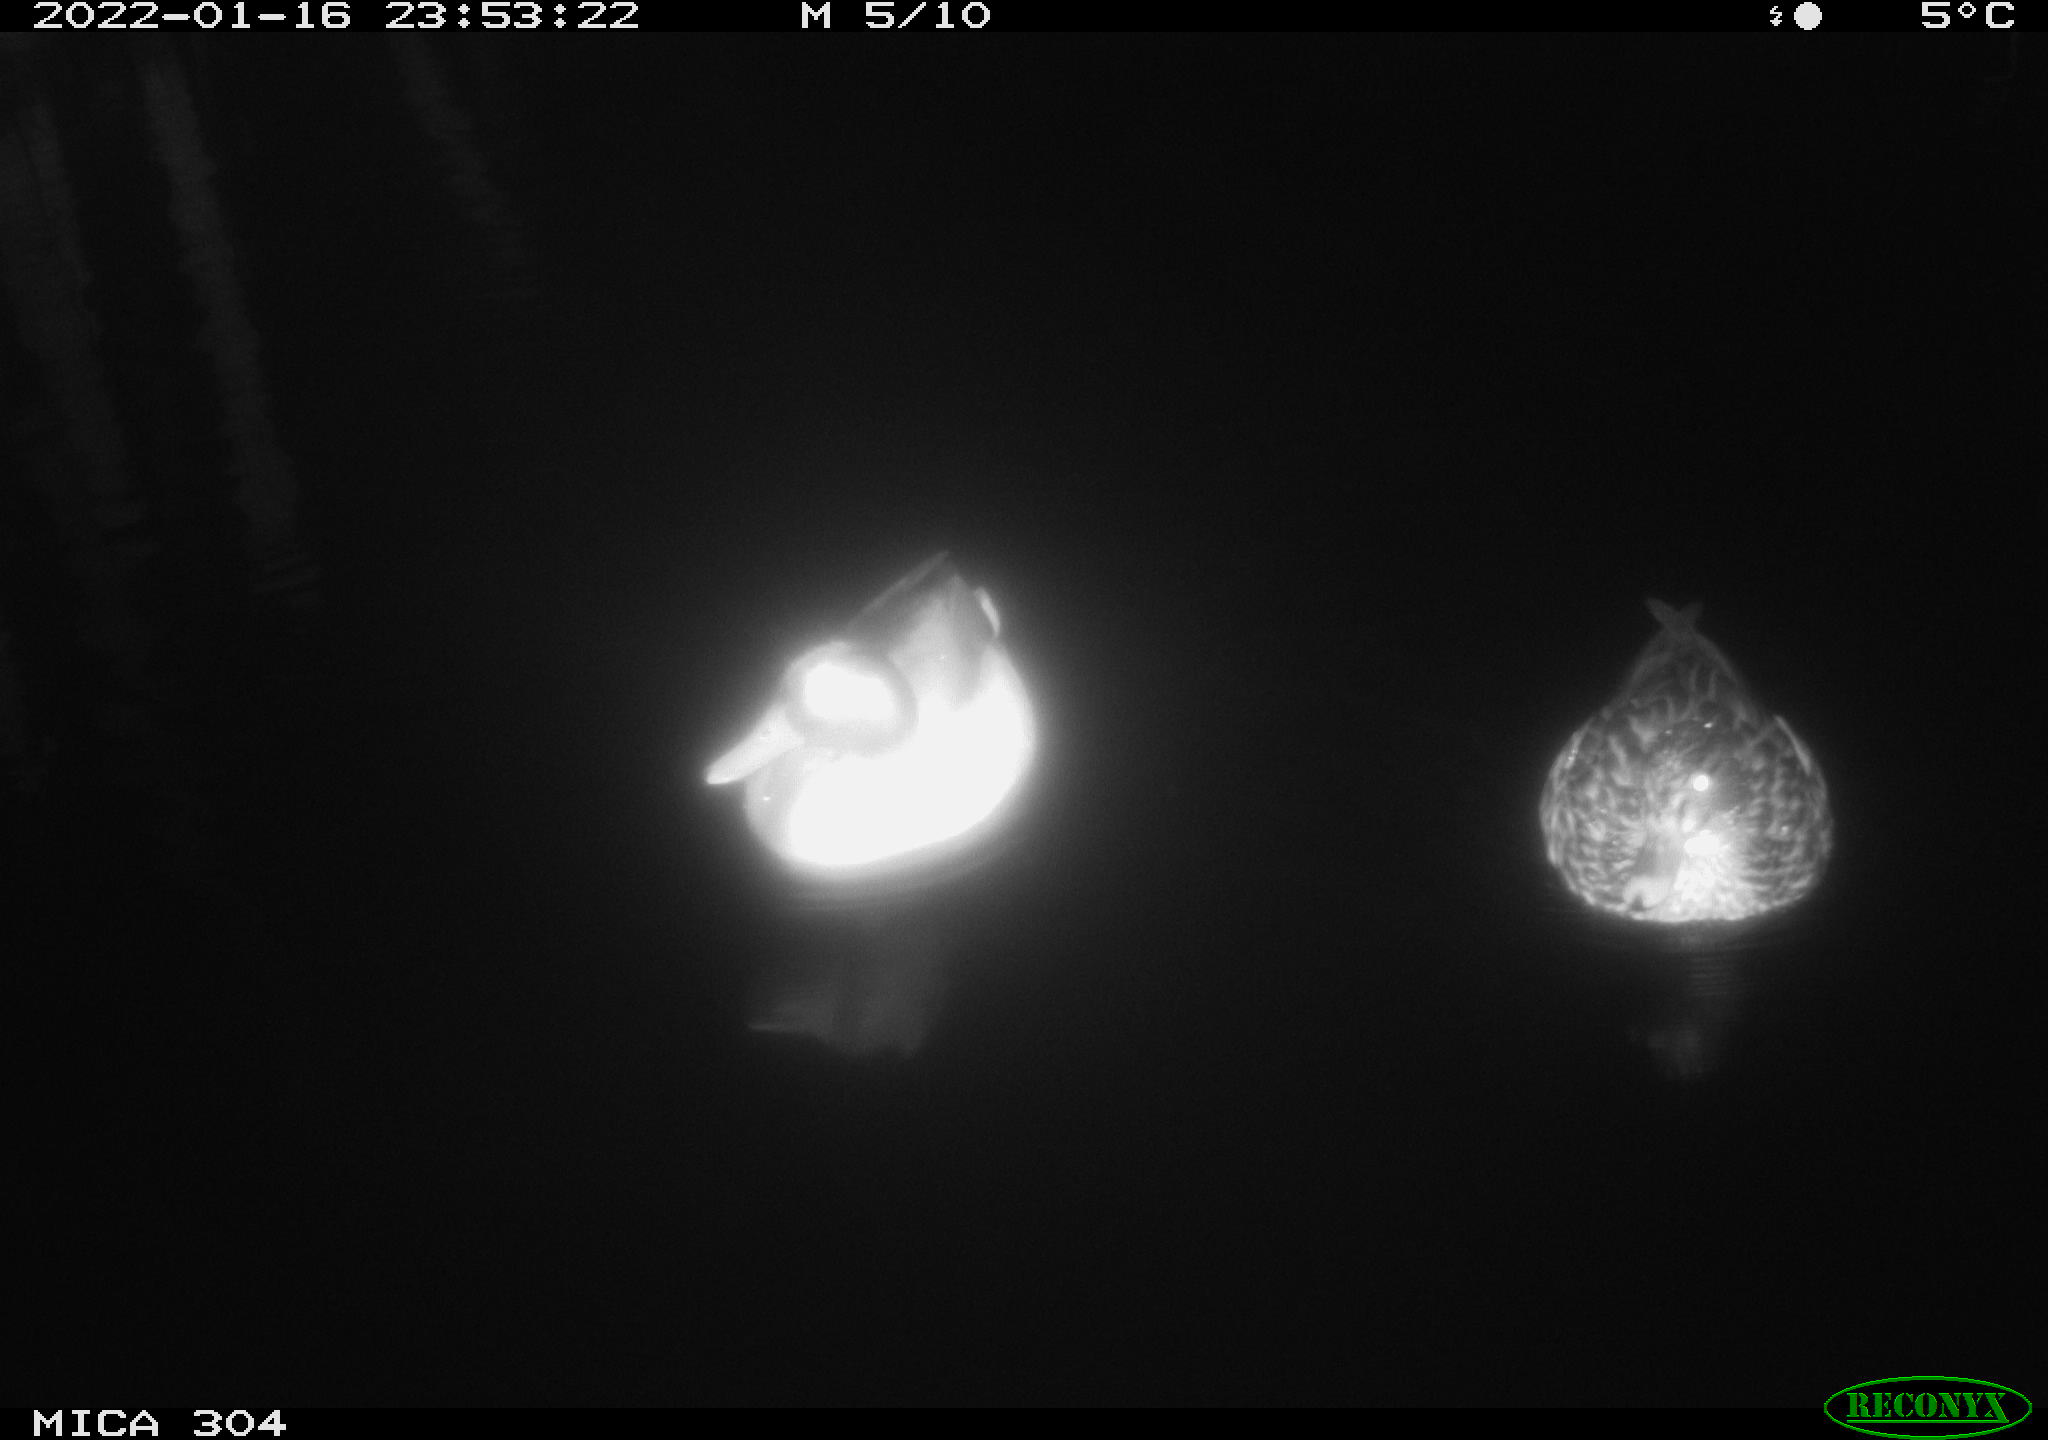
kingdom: Animalia
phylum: Chordata
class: Aves
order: Anseriformes
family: Anatidae
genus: Anas
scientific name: Anas platyrhynchos
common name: Mallard
